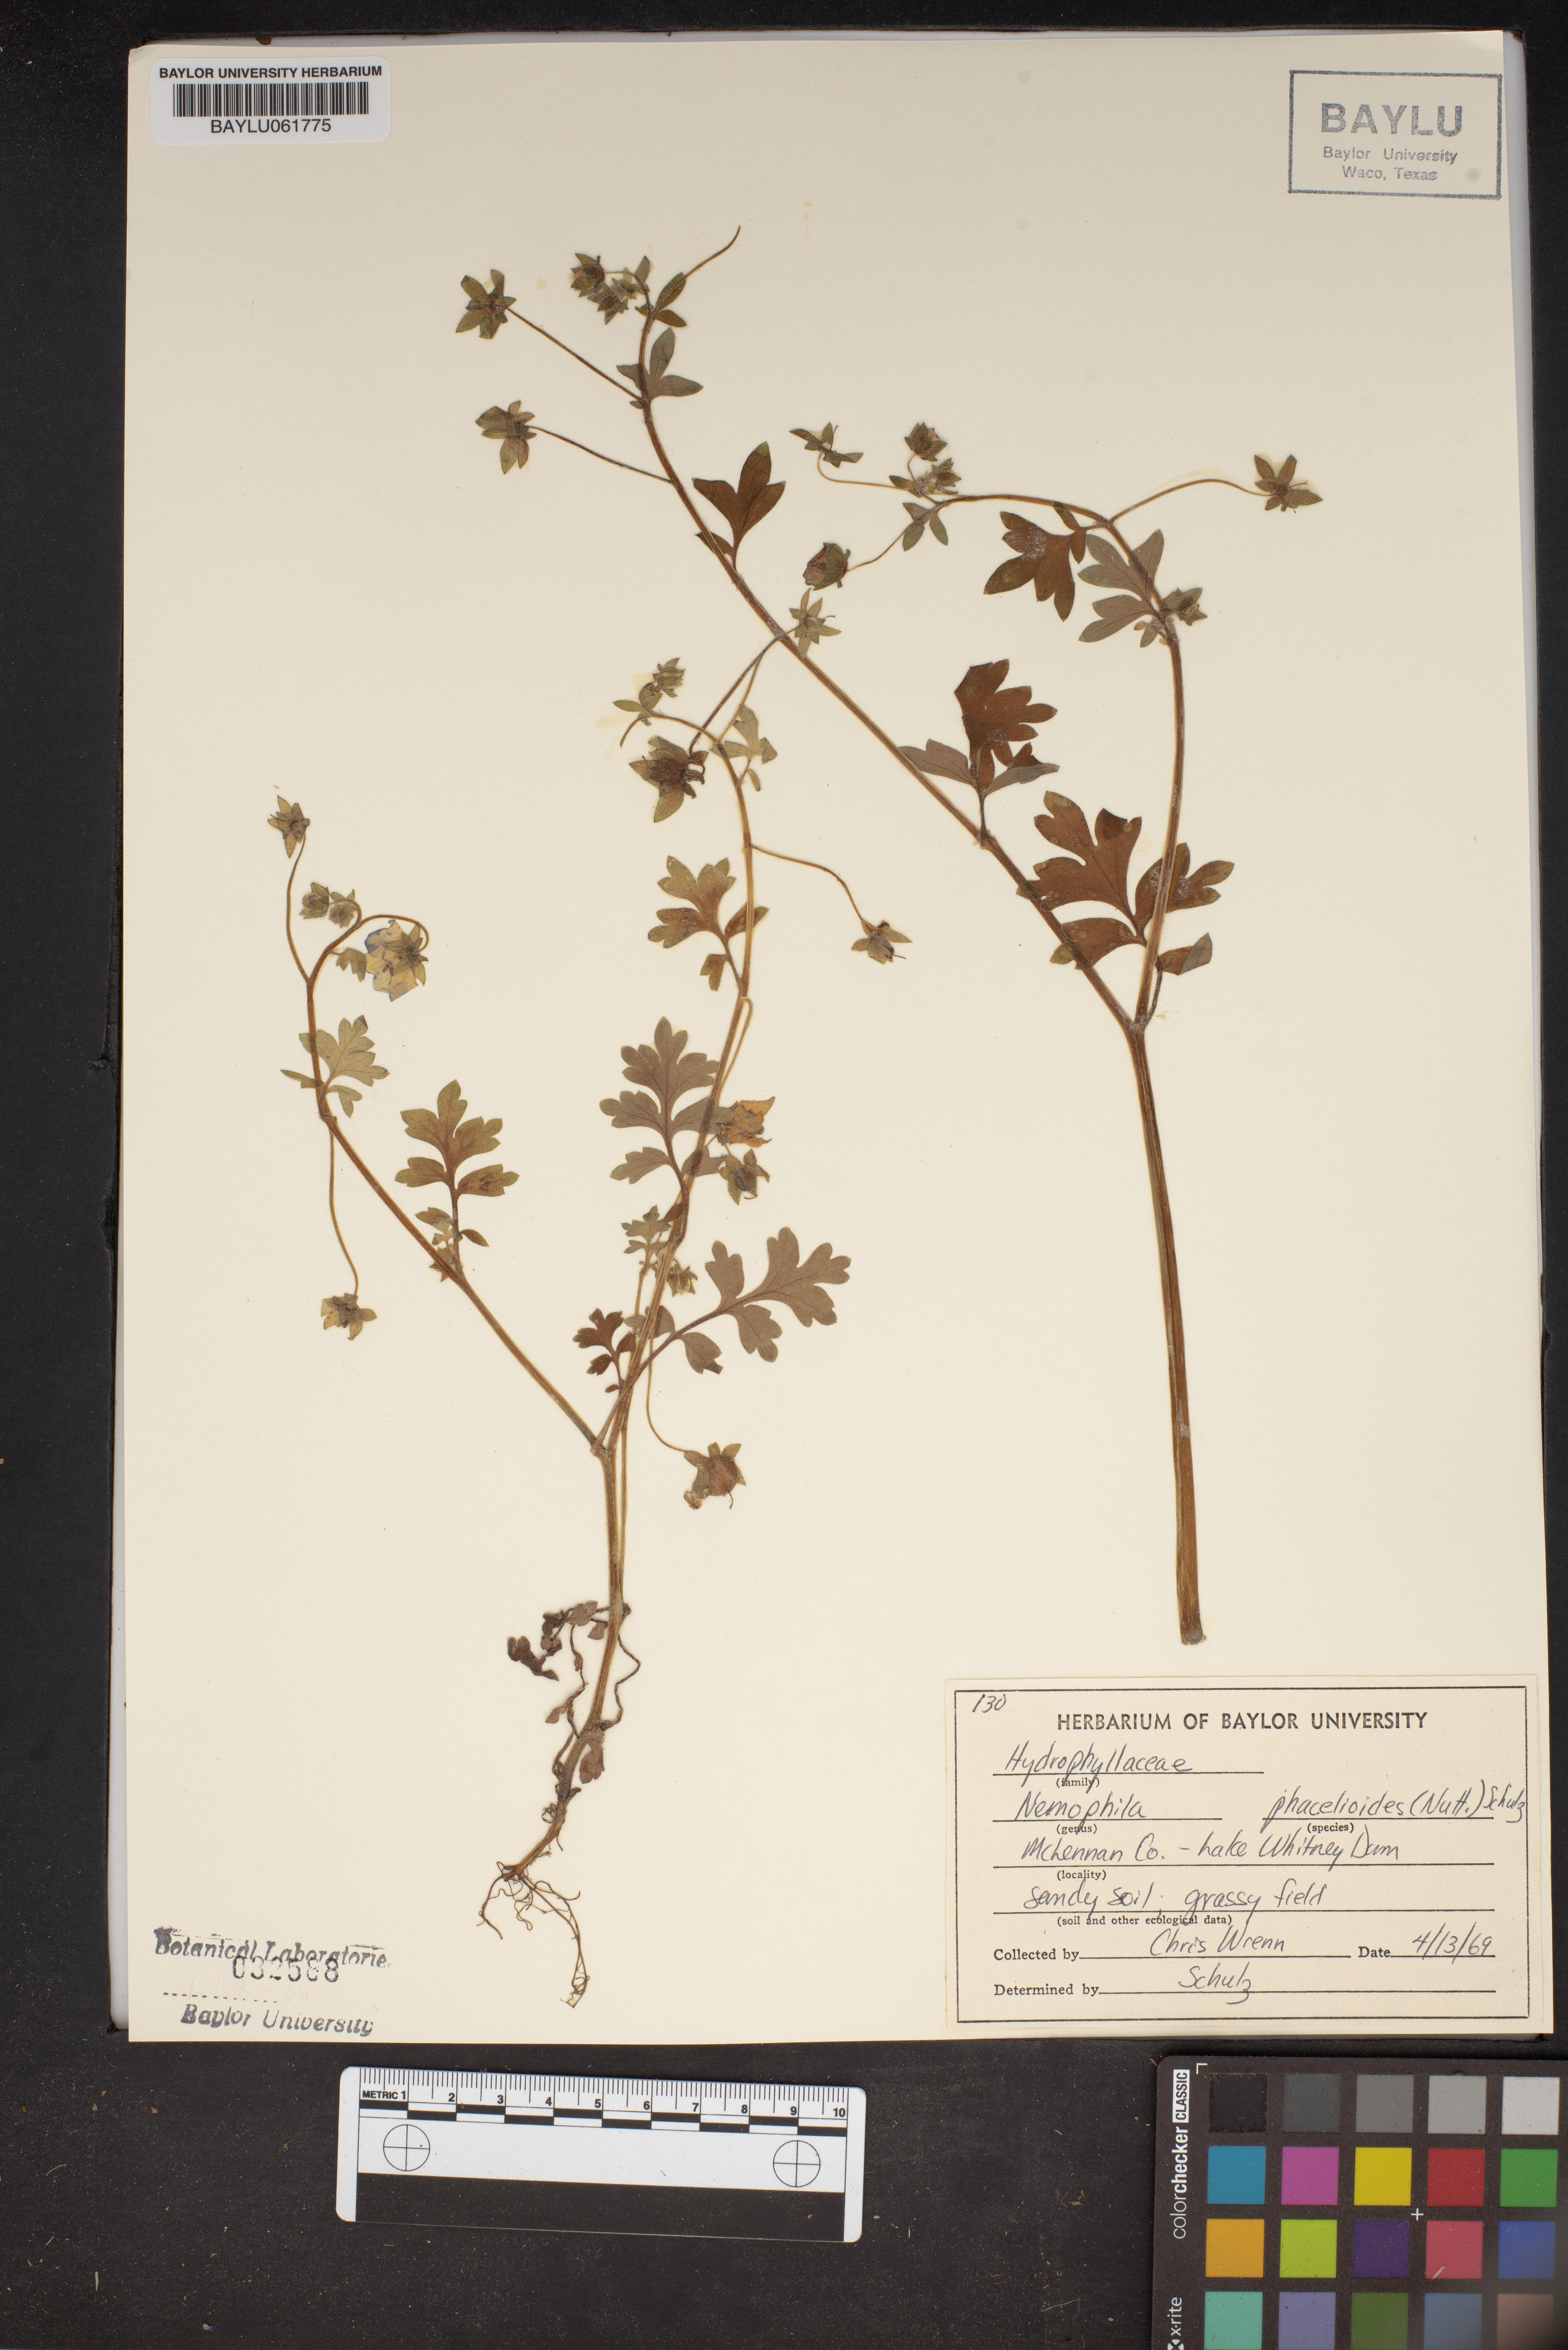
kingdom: Plantae
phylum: Tracheophyta
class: Magnoliopsida
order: Boraginales
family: Hydrophyllaceae
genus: Nemophila
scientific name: Nemophila phacelioides
